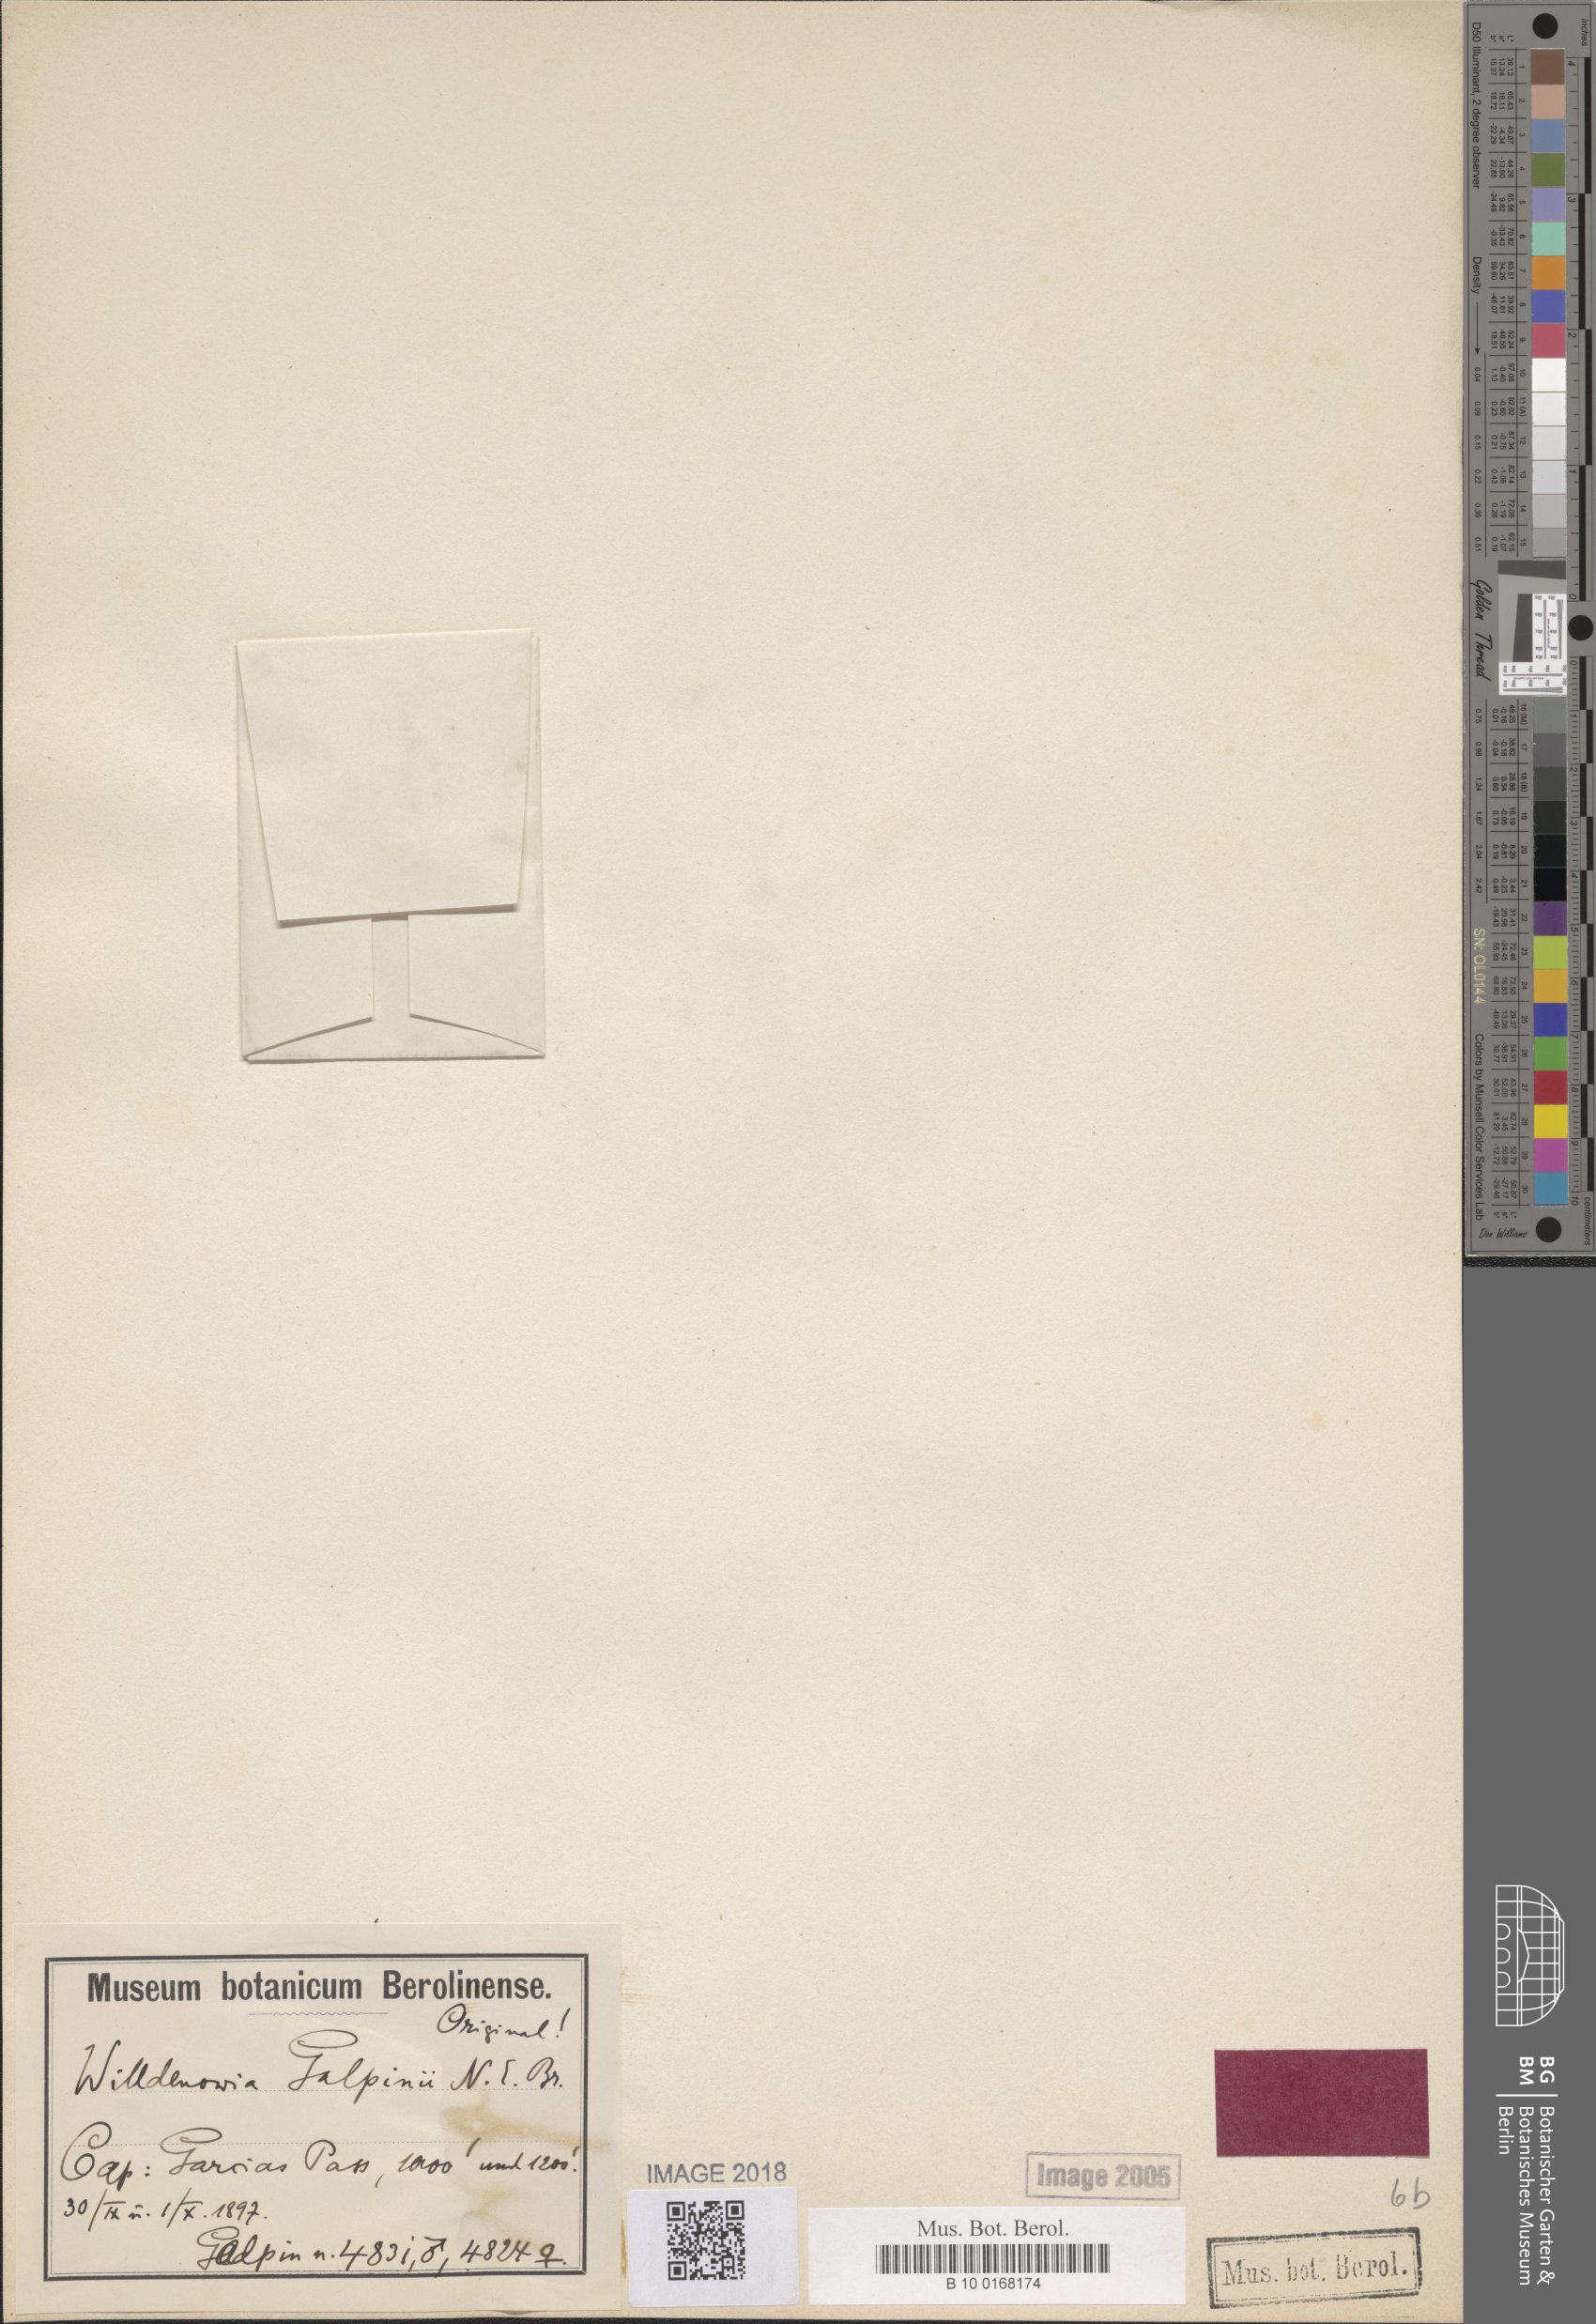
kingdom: Plantae
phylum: Tracheophyta
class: Liliopsida
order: Poales
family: Restionaceae
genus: Willdenowia
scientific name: Willdenowia teres
